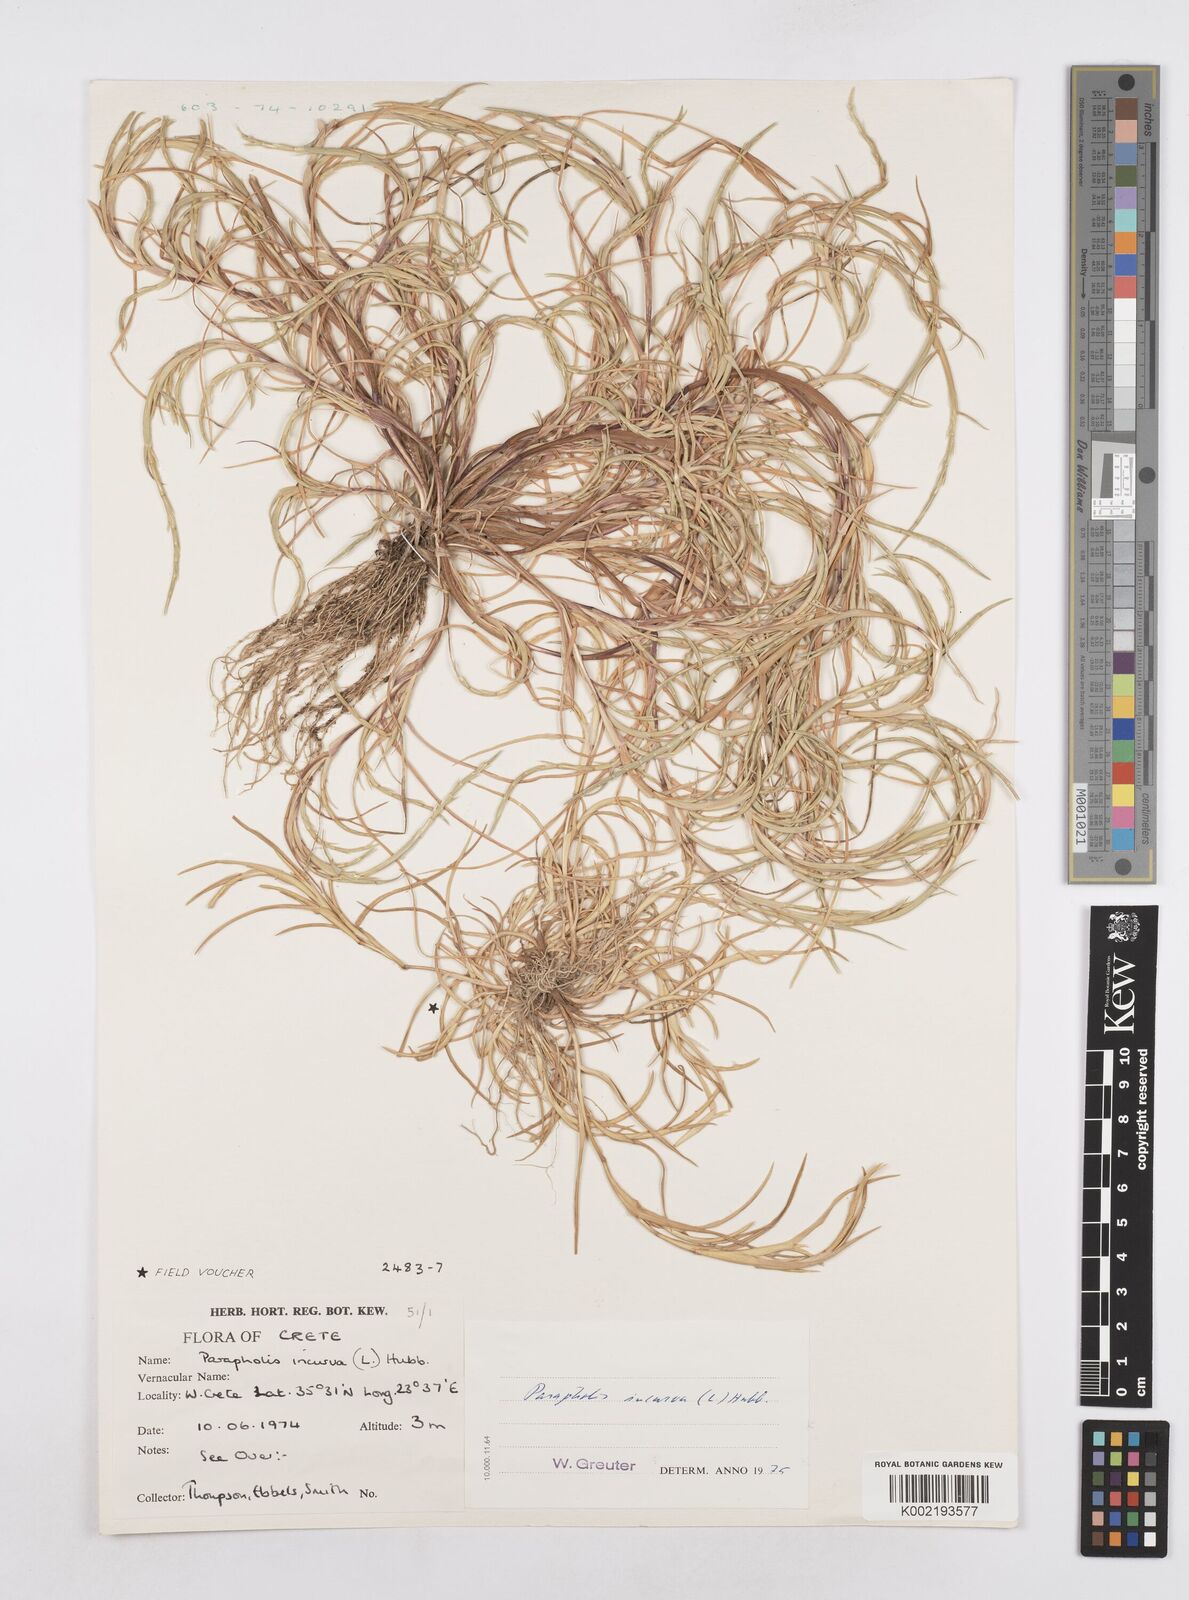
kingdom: Plantae
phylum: Tracheophyta
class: Liliopsida
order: Poales
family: Poaceae
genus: Parapholis
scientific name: Parapholis incurva
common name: Curved sicklegrass
